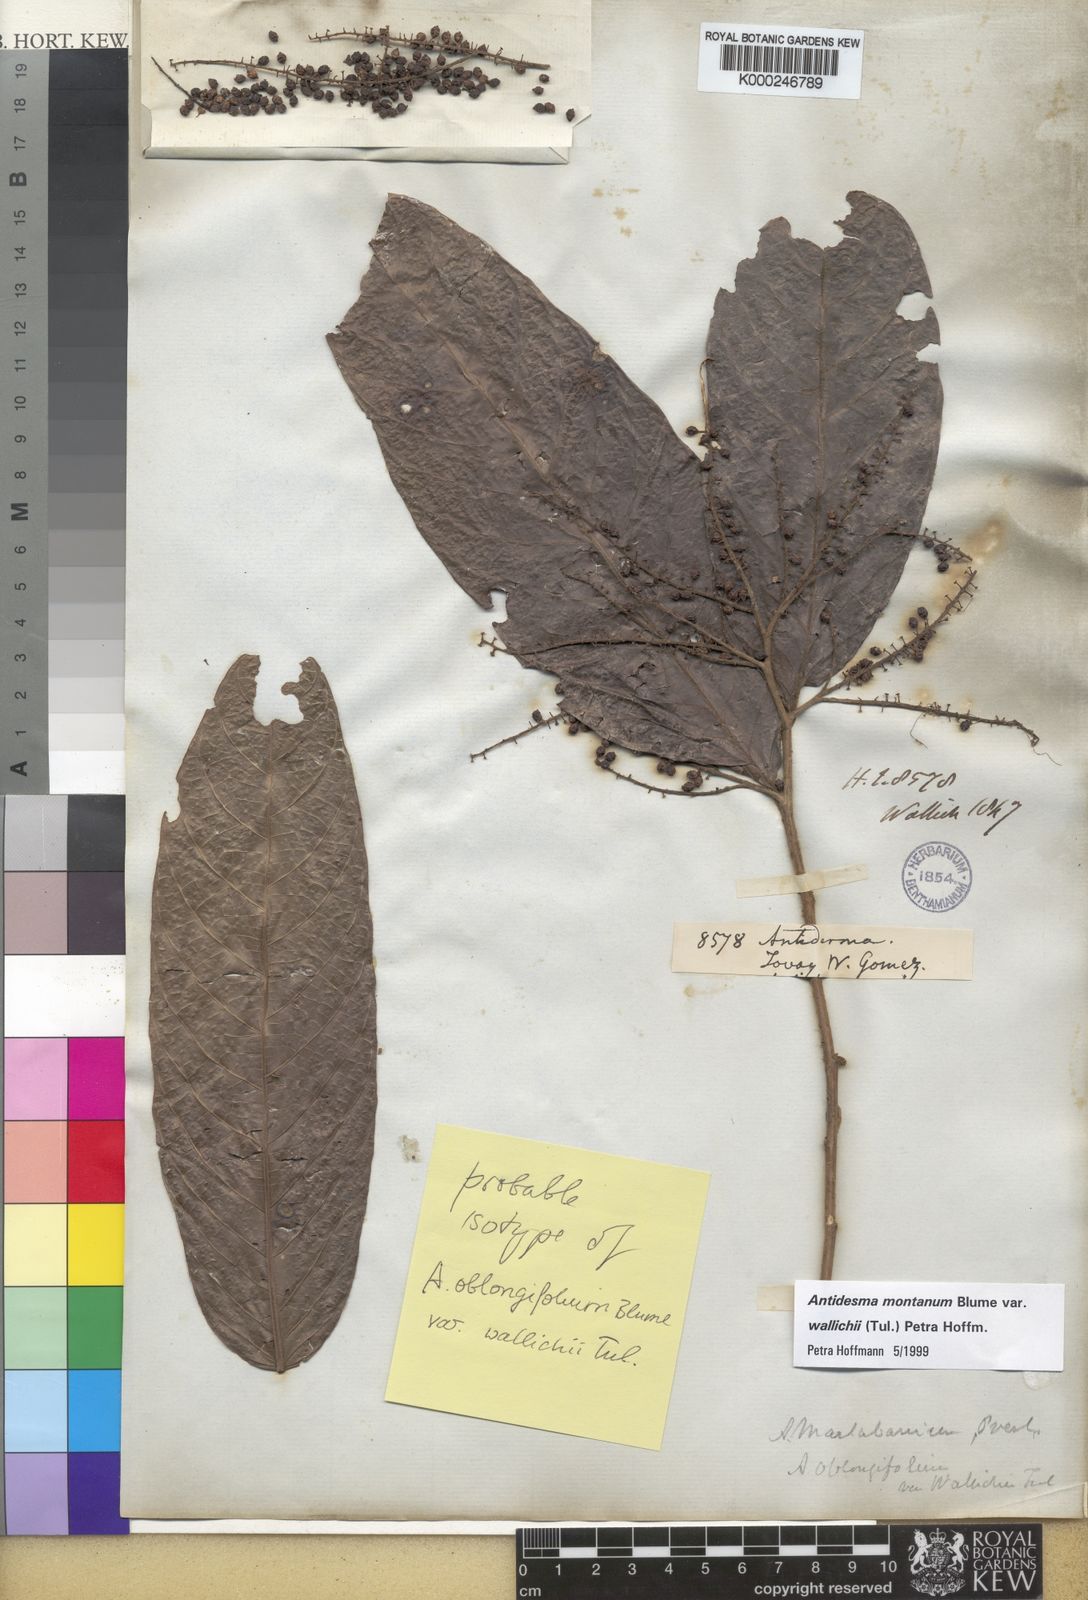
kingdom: Plantae
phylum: Tracheophyta
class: Magnoliopsida
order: Malpighiales
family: Phyllanthaceae
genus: Antidesma
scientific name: Antidesma montanum
